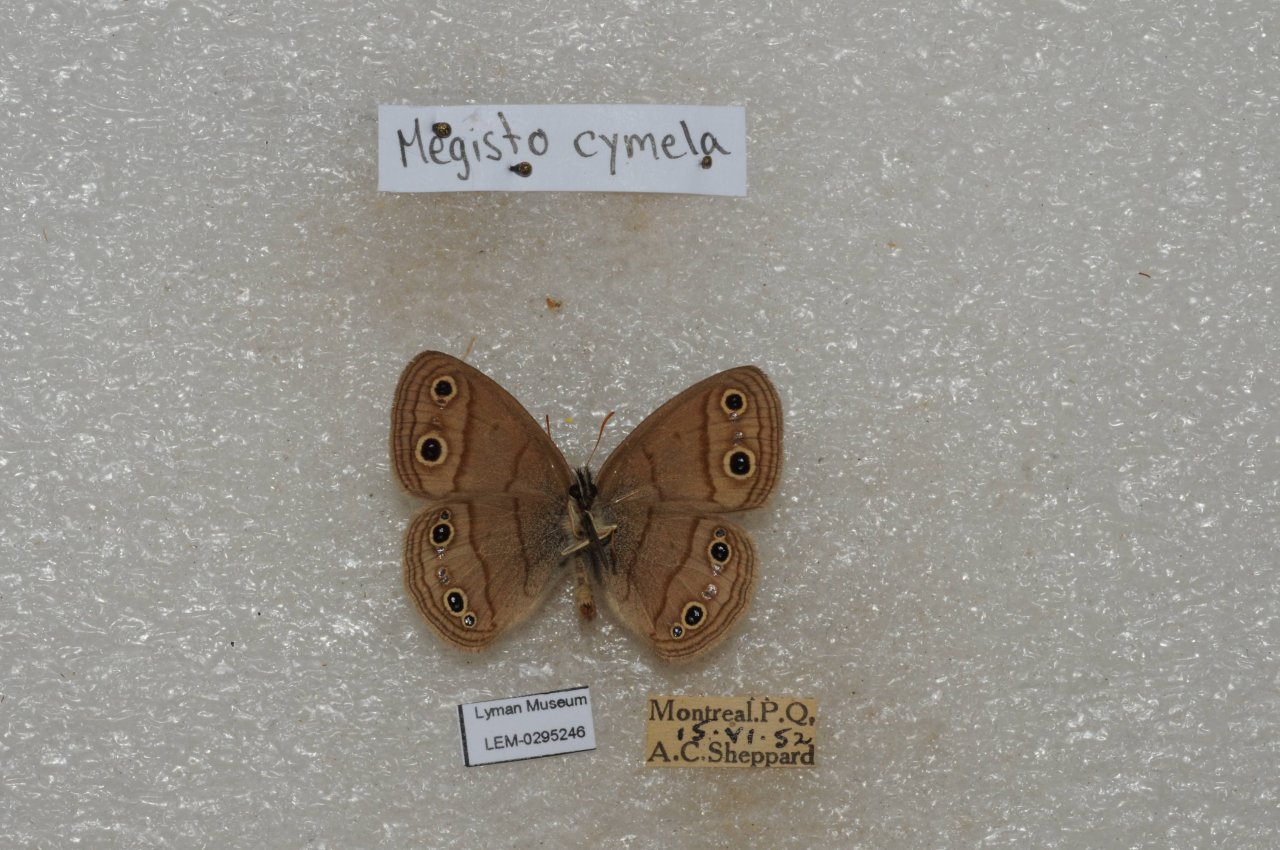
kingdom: Animalia
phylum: Arthropoda
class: Insecta
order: Lepidoptera
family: Nymphalidae
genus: Euptychia
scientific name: Euptychia cymela
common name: Little Wood Satyr
